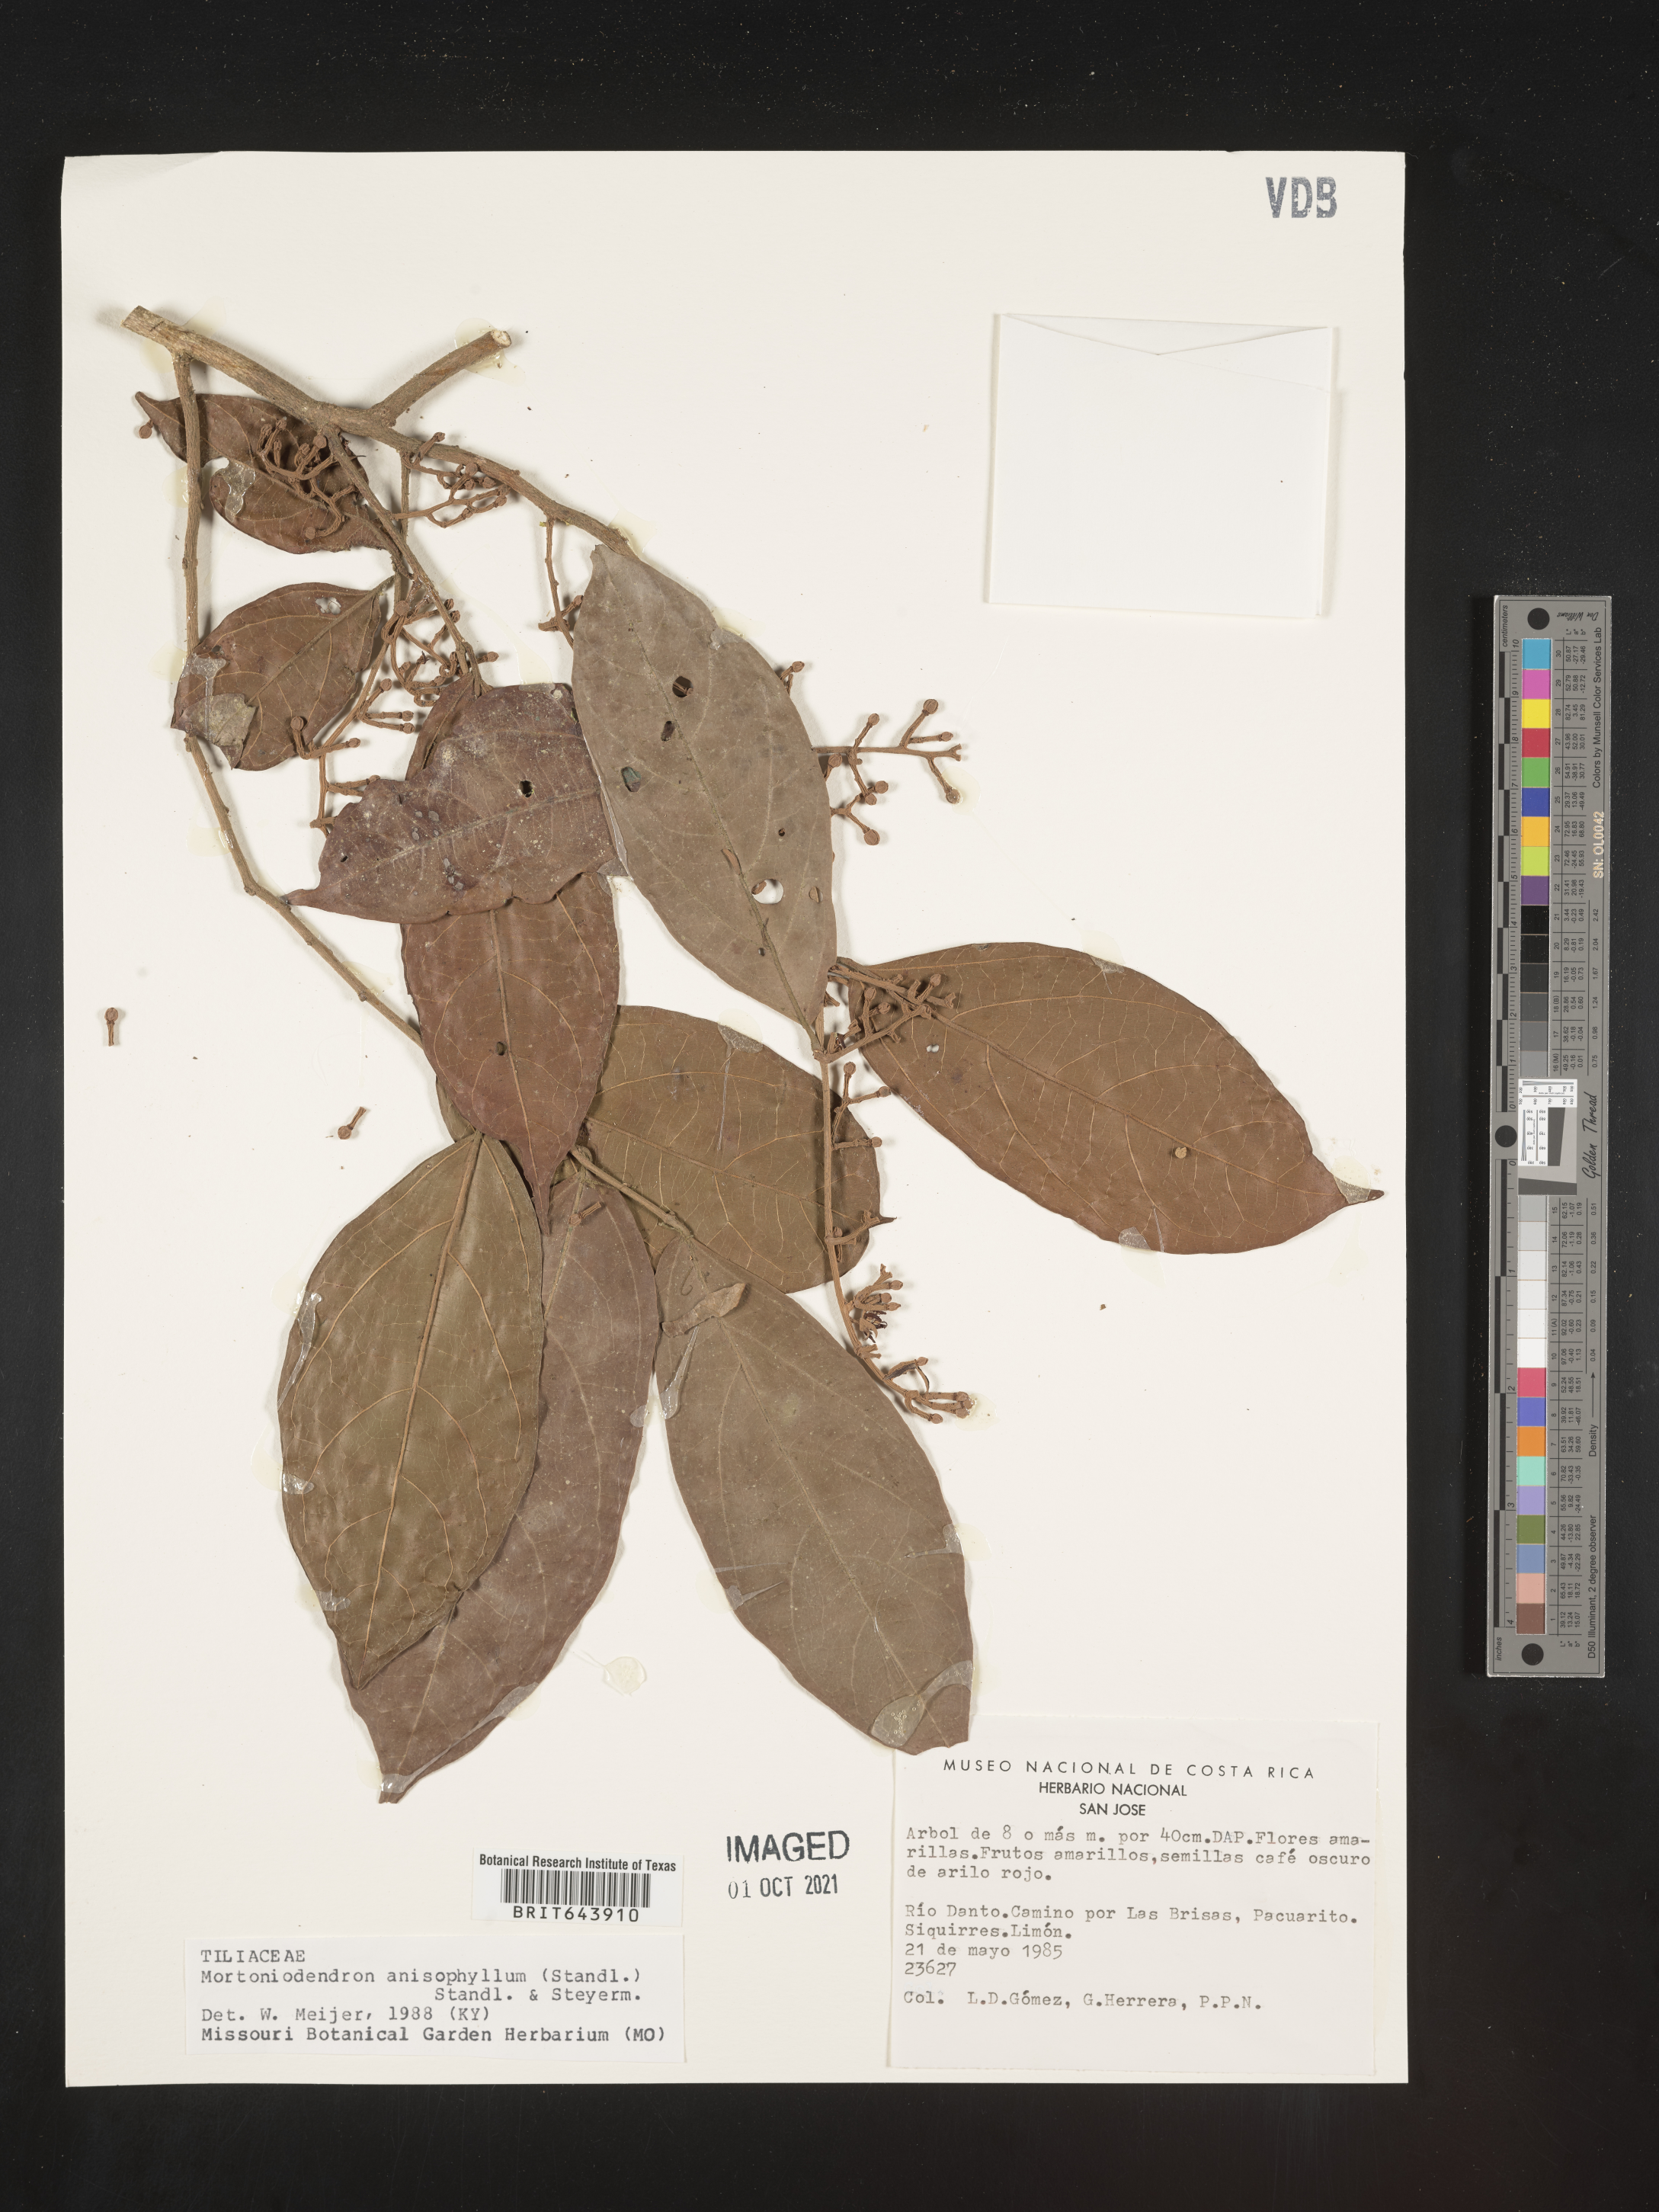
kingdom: Plantae
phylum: Tracheophyta
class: Magnoliopsida
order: Malvales
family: Malvaceae
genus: Mortoniodendron
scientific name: Mortoniodendron
